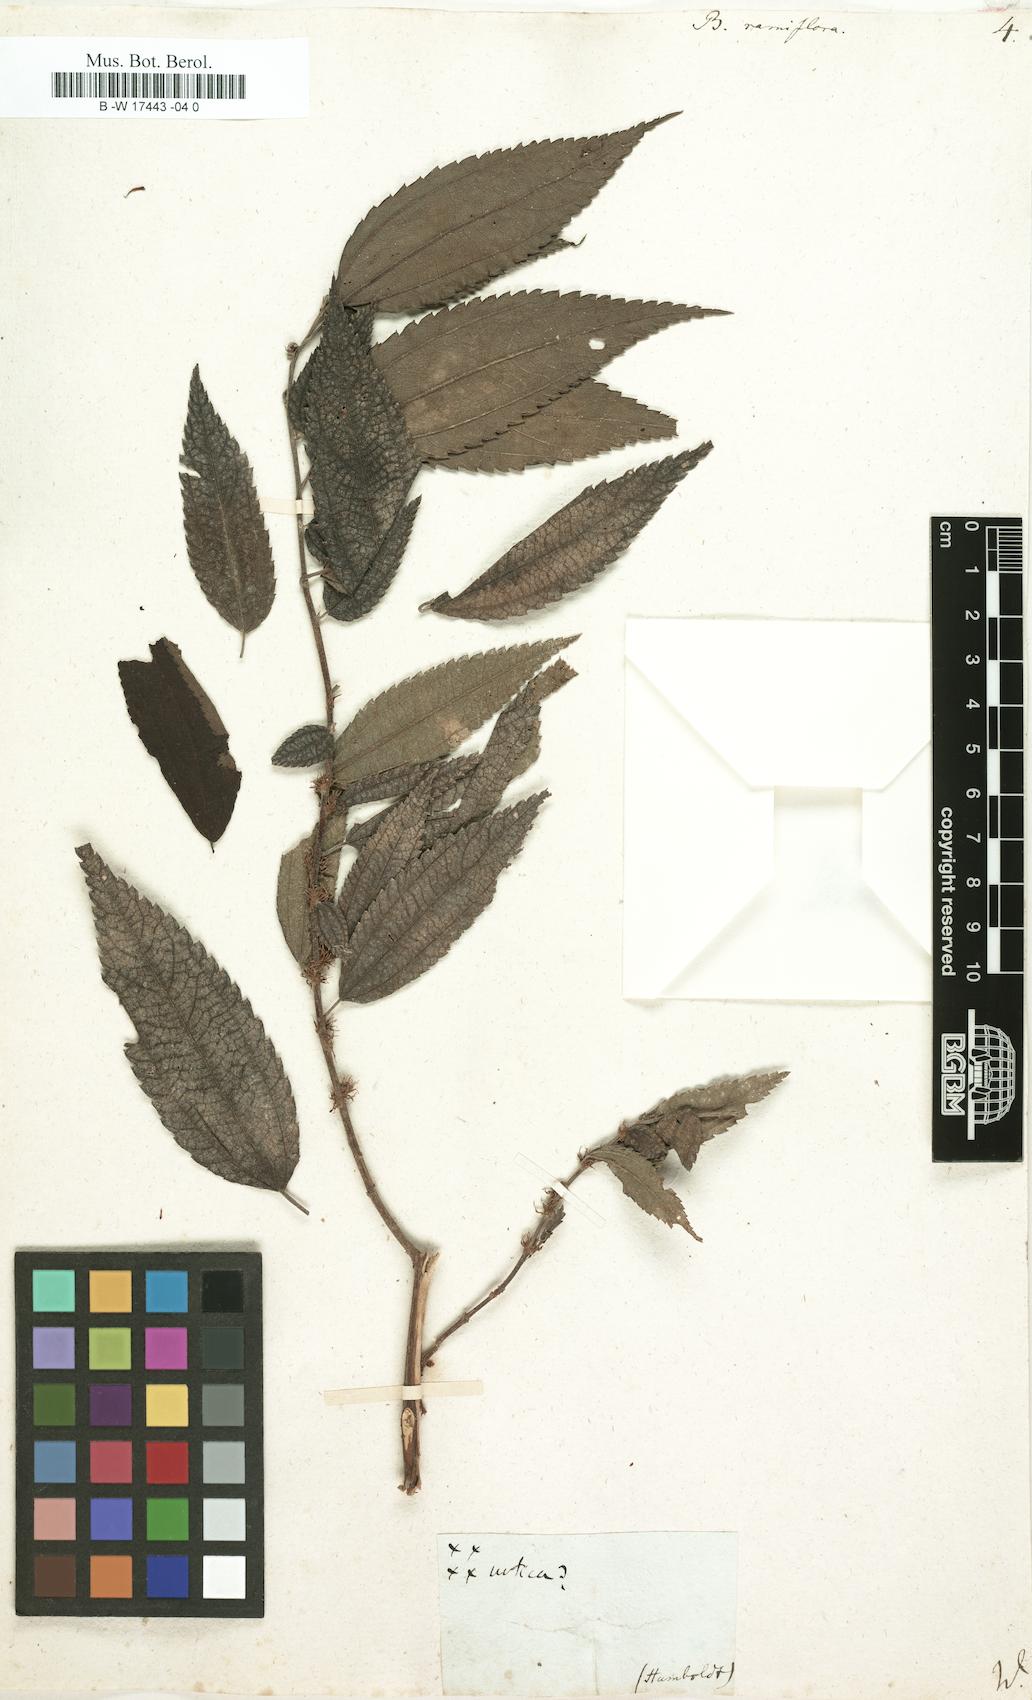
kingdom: Plantae
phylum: Tracheophyta
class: Magnoliopsida
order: Rosales
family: Urticaceae
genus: Boehmeria
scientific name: Boehmeria ramiflora
